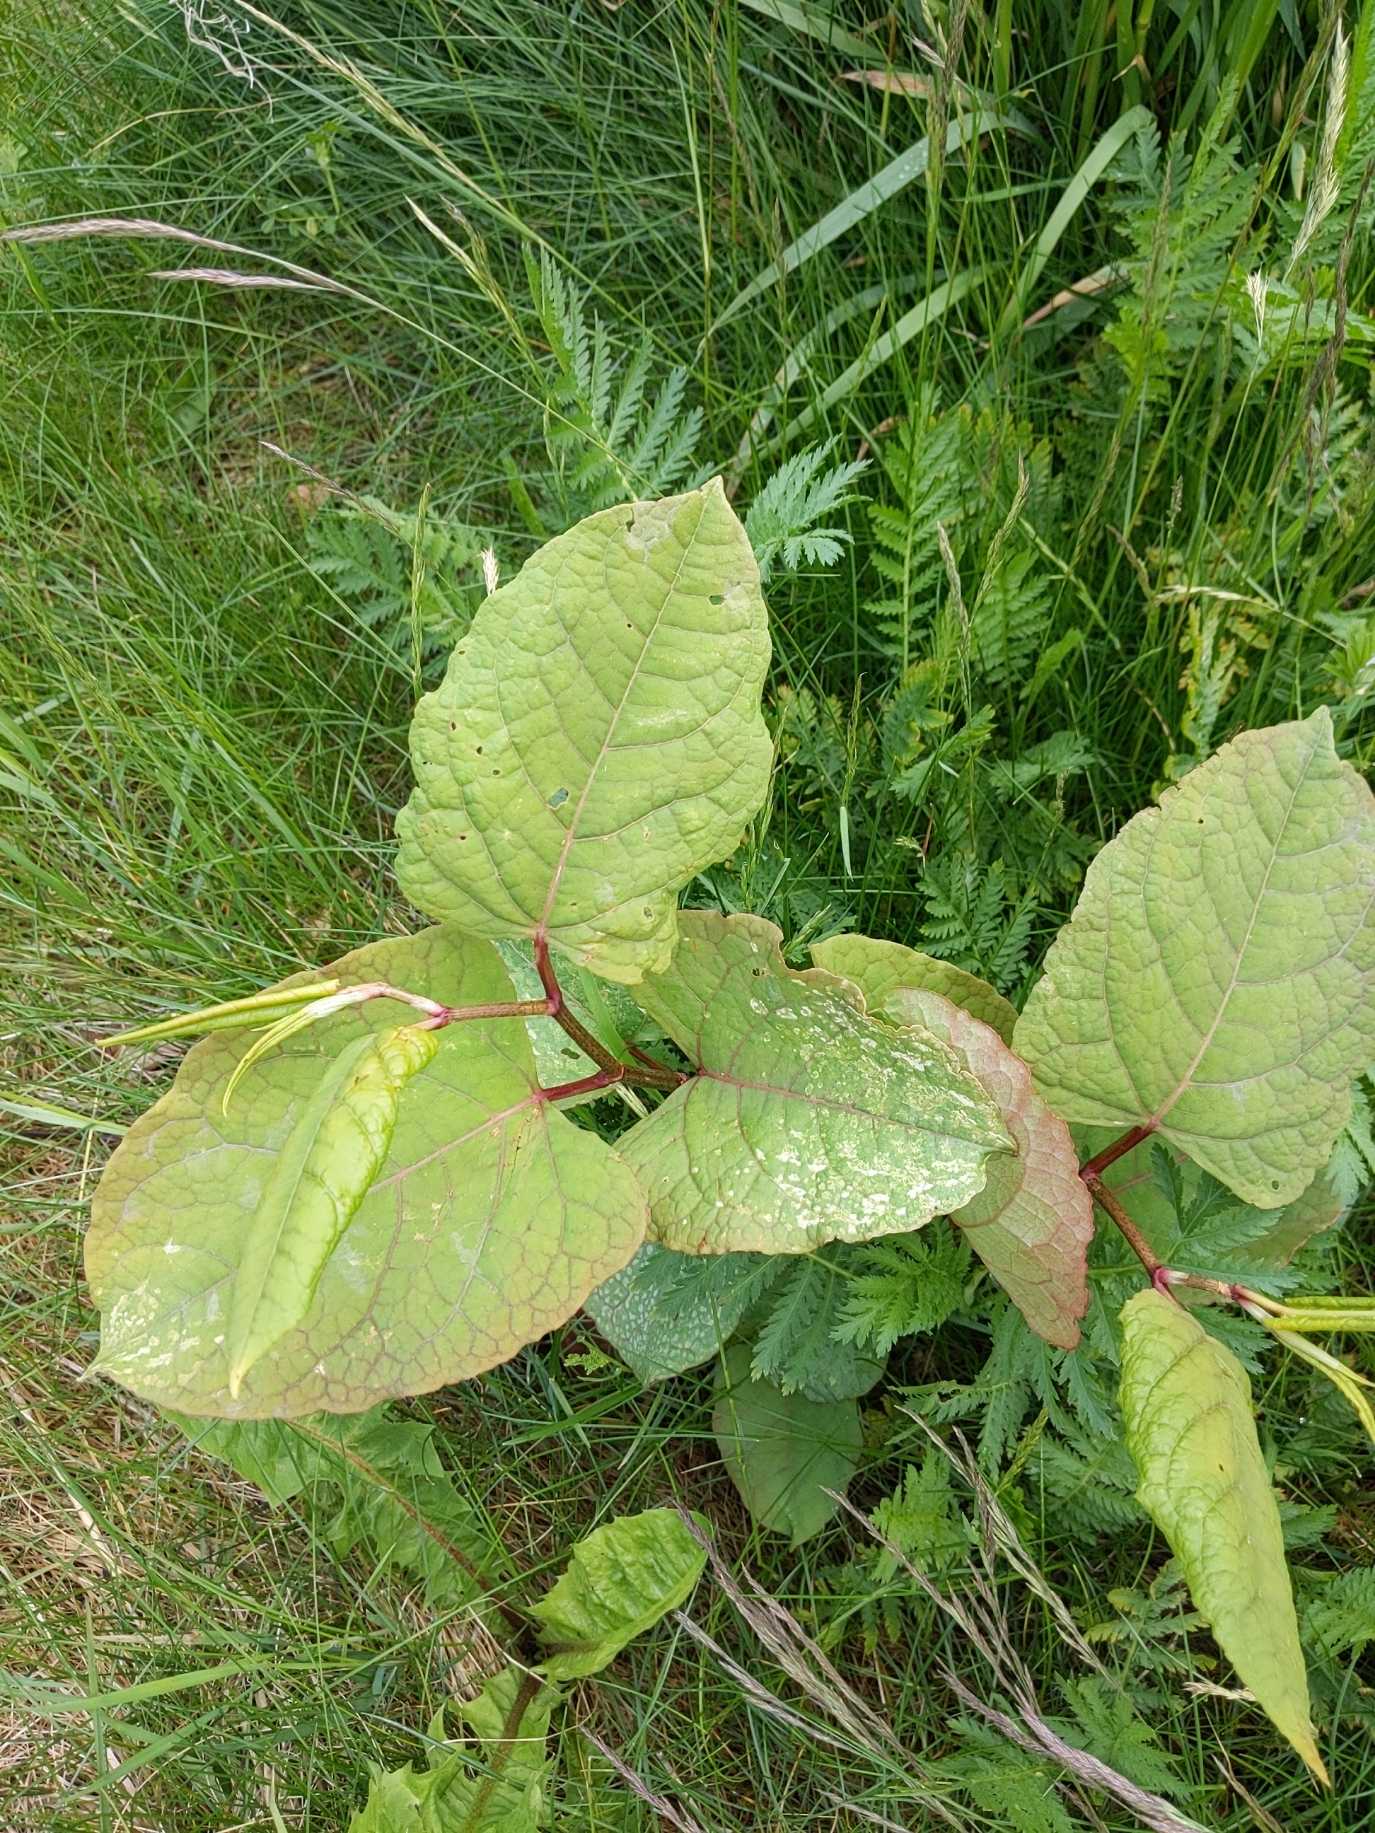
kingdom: Plantae
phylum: Tracheophyta
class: Magnoliopsida
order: Caryophyllales
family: Polygonaceae
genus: Reynoutria
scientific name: Reynoutria bohemica
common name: Hybrid-pileurt
